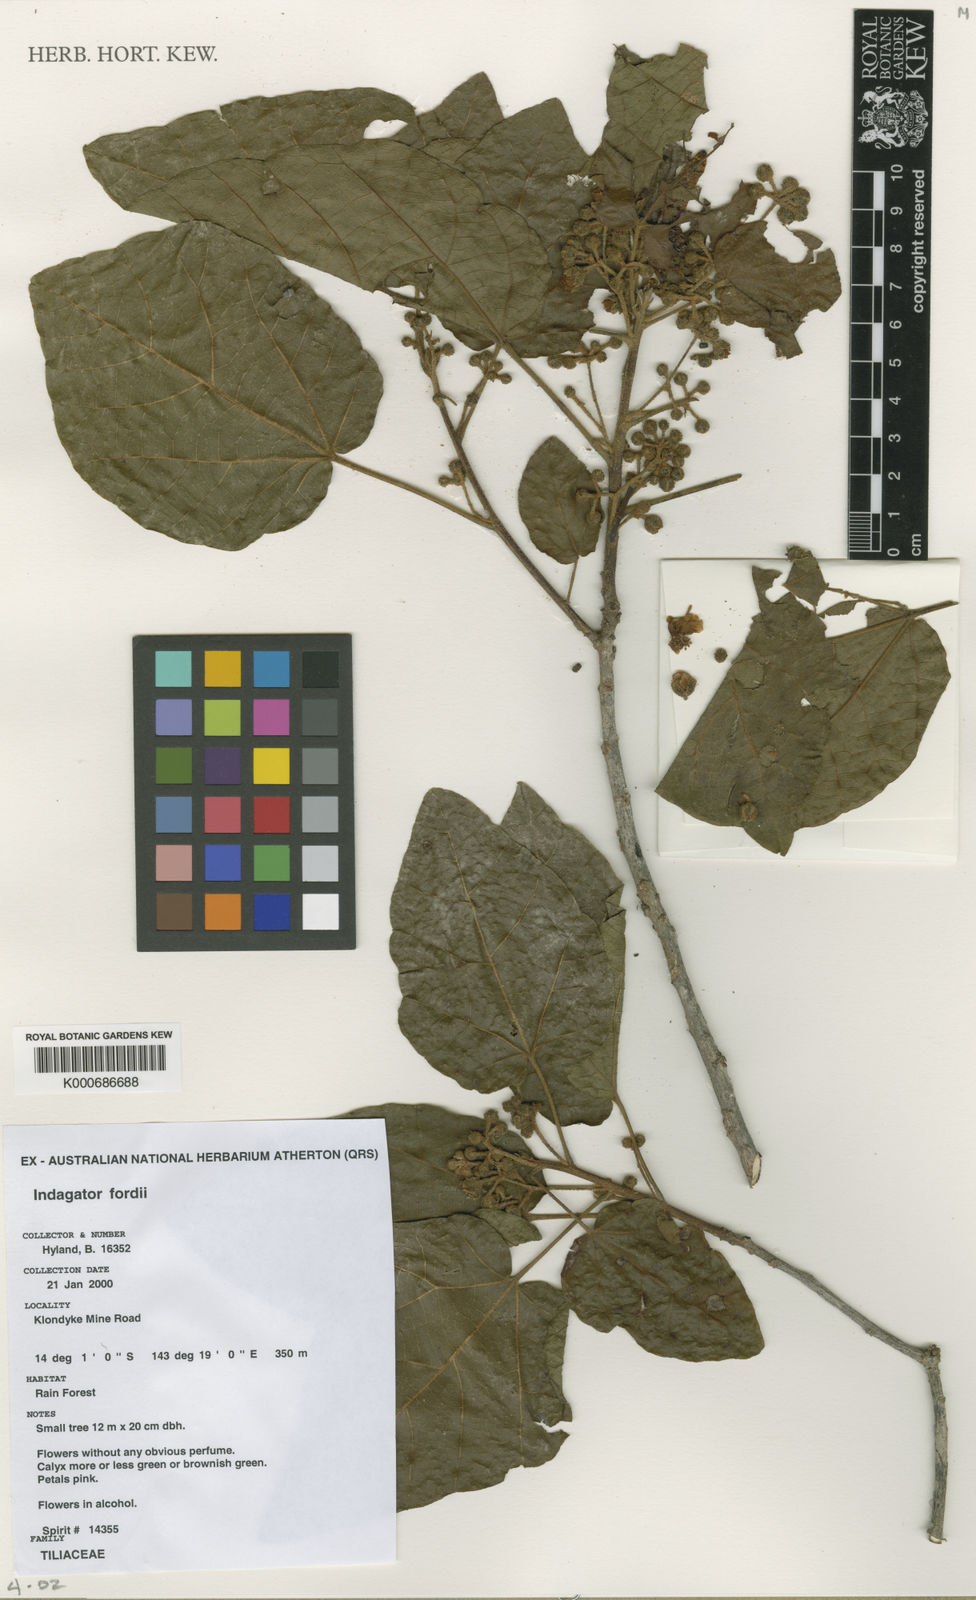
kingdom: Plantae
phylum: Tracheophyta
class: Magnoliopsida
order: Malvales
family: Malvaceae
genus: Indagator
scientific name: Indagator fordii
